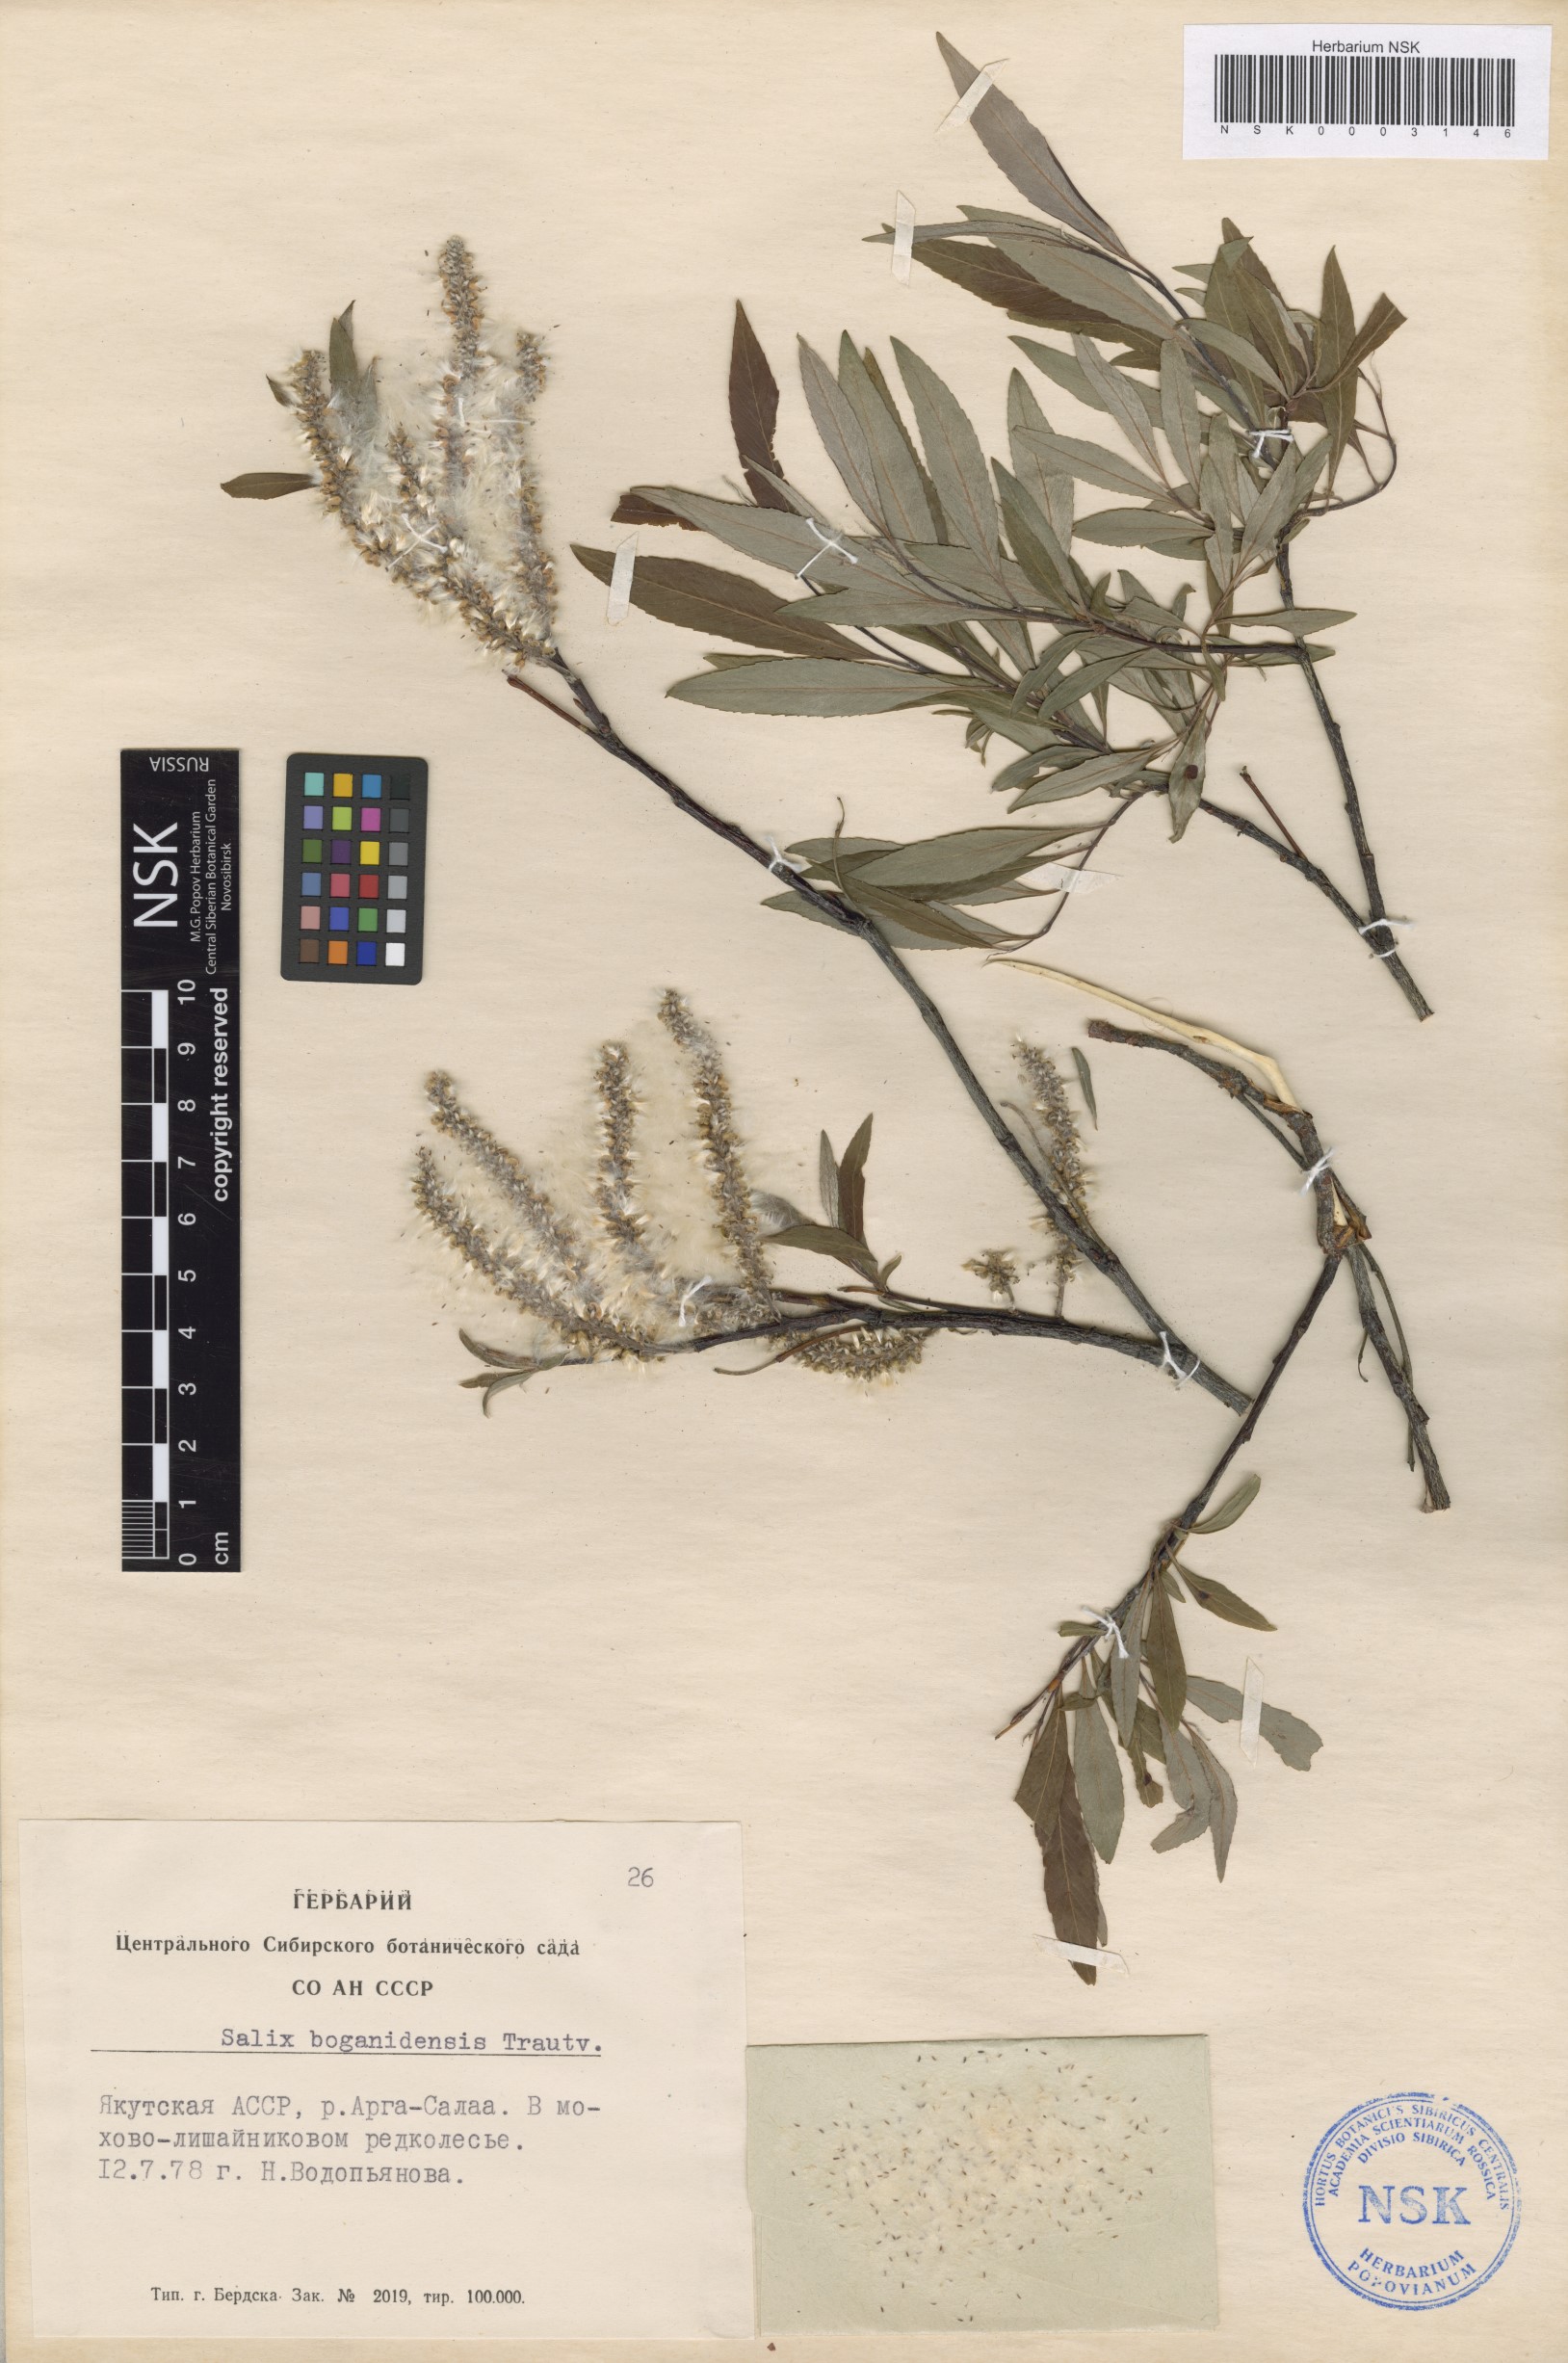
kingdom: Plantae
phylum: Tracheophyta
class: Magnoliopsida
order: Malpighiales
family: Salicaceae
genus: Salix
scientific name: Salix boganidensis
